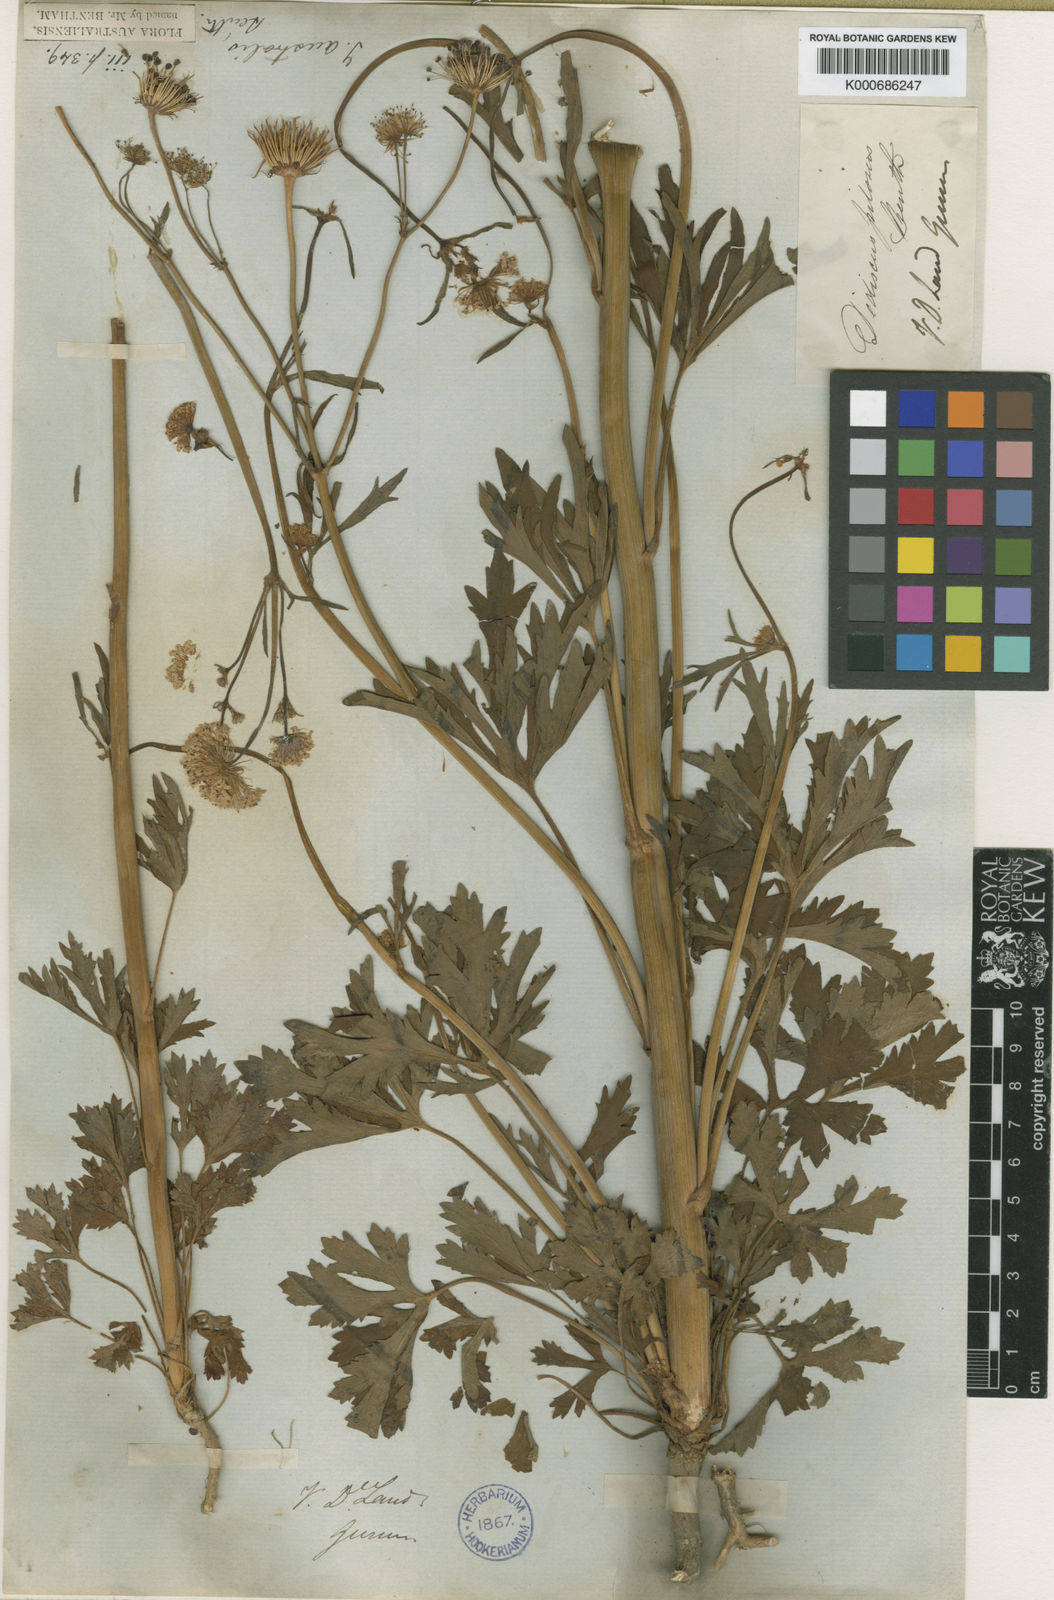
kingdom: Plantae
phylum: Tracheophyta
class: Magnoliopsida
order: Apiales
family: Araliaceae
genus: Trachymene
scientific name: Trachymene composita
